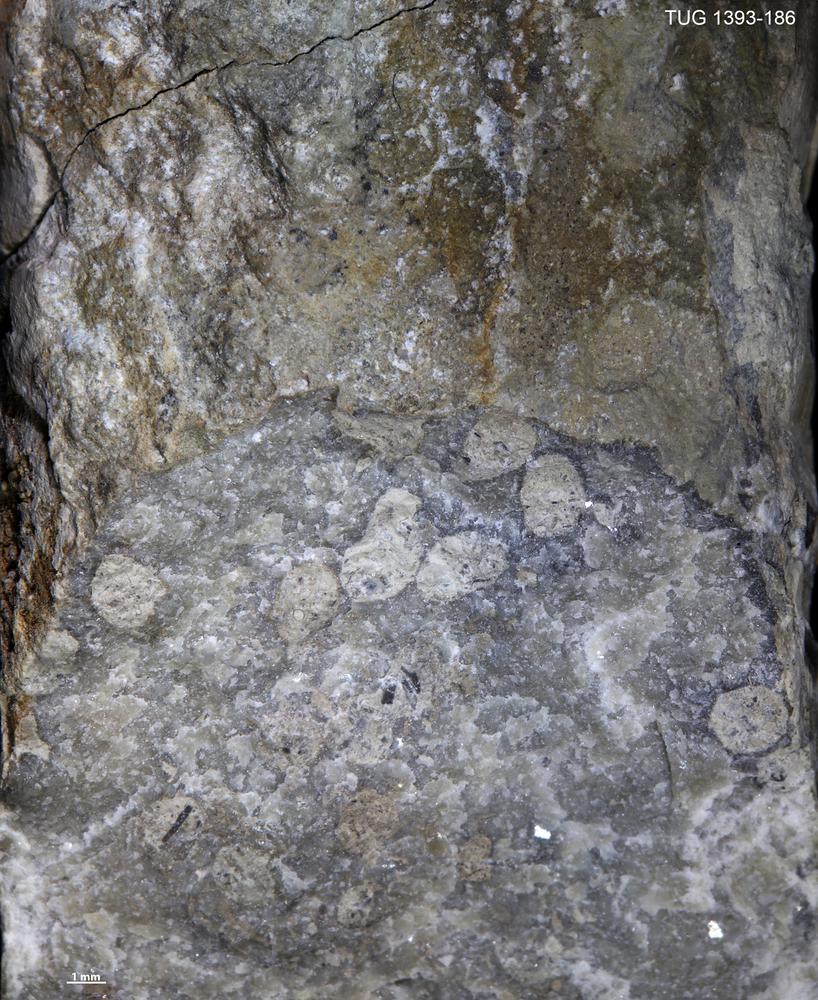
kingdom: Animalia
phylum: Sipuncula
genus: Trypanites
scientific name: Trypanites
